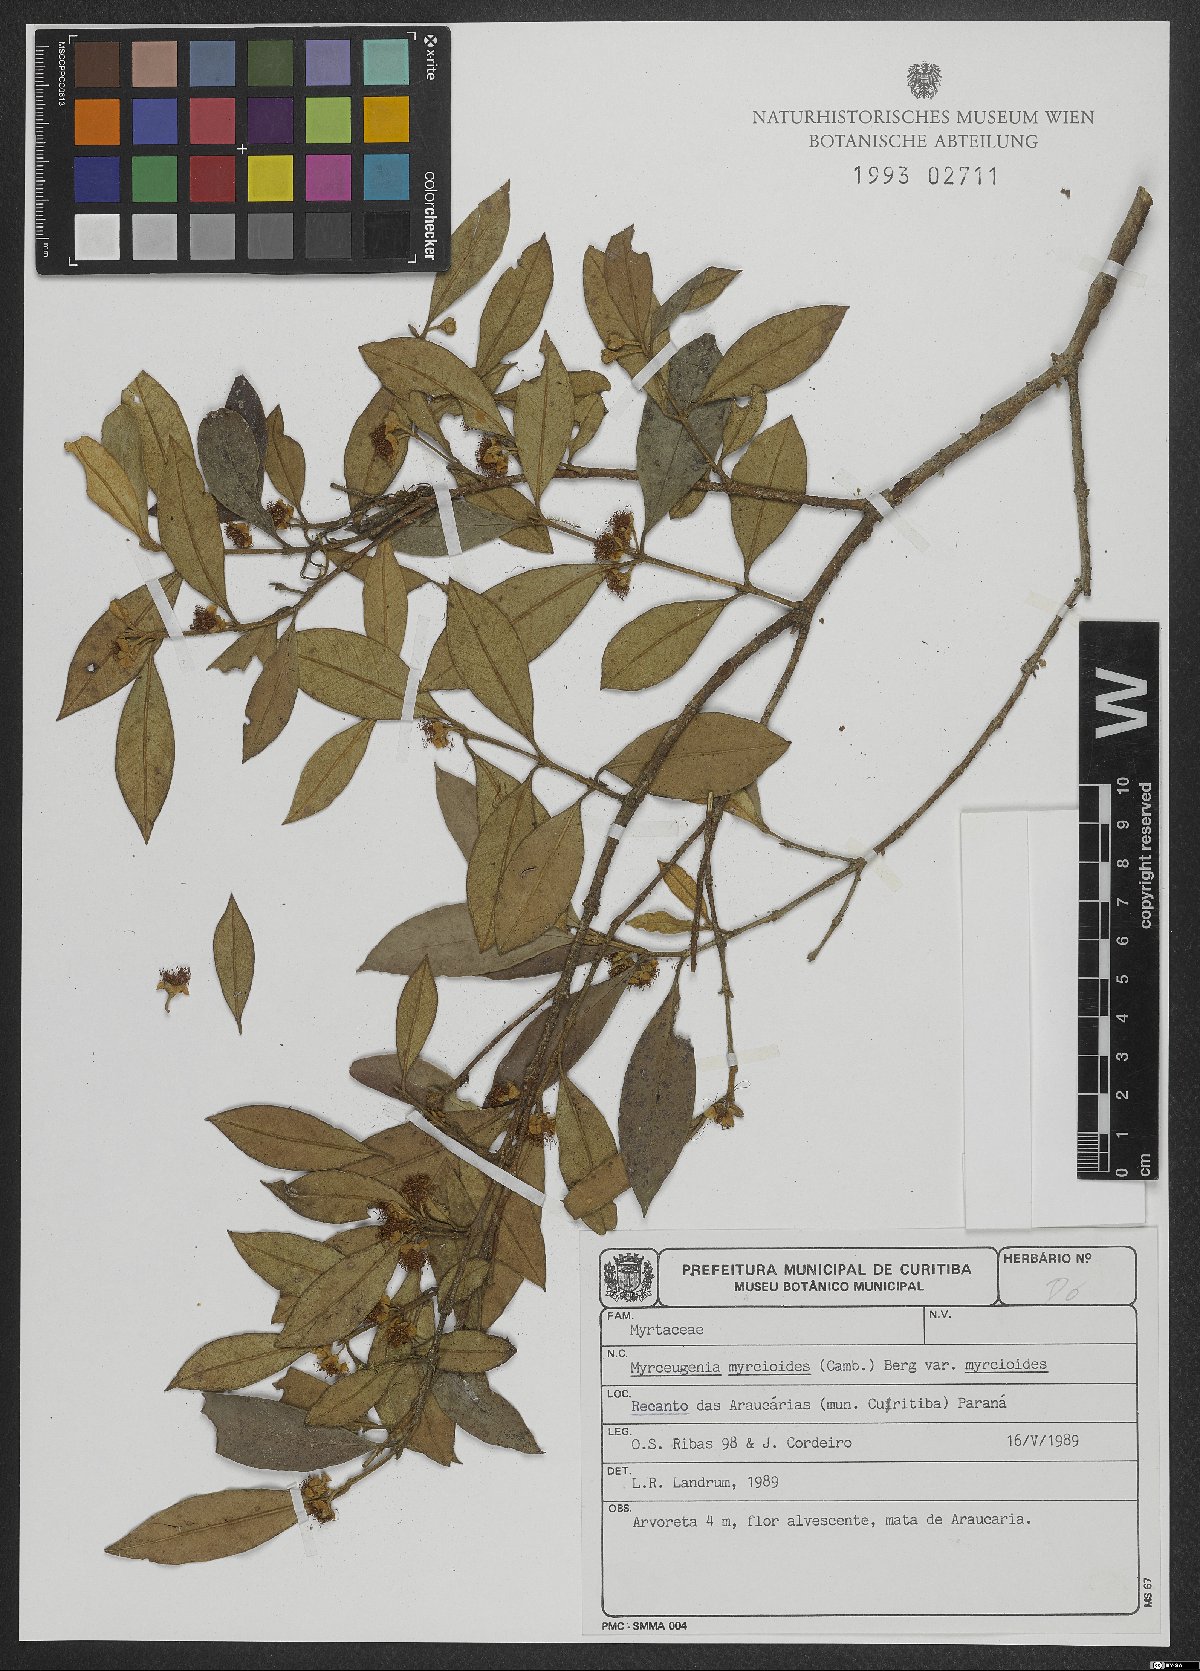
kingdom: Plantae
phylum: Tracheophyta
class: Magnoliopsida
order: Myrtales
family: Myrtaceae
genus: Myrceugenia
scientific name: Myrceugenia myrcioides
